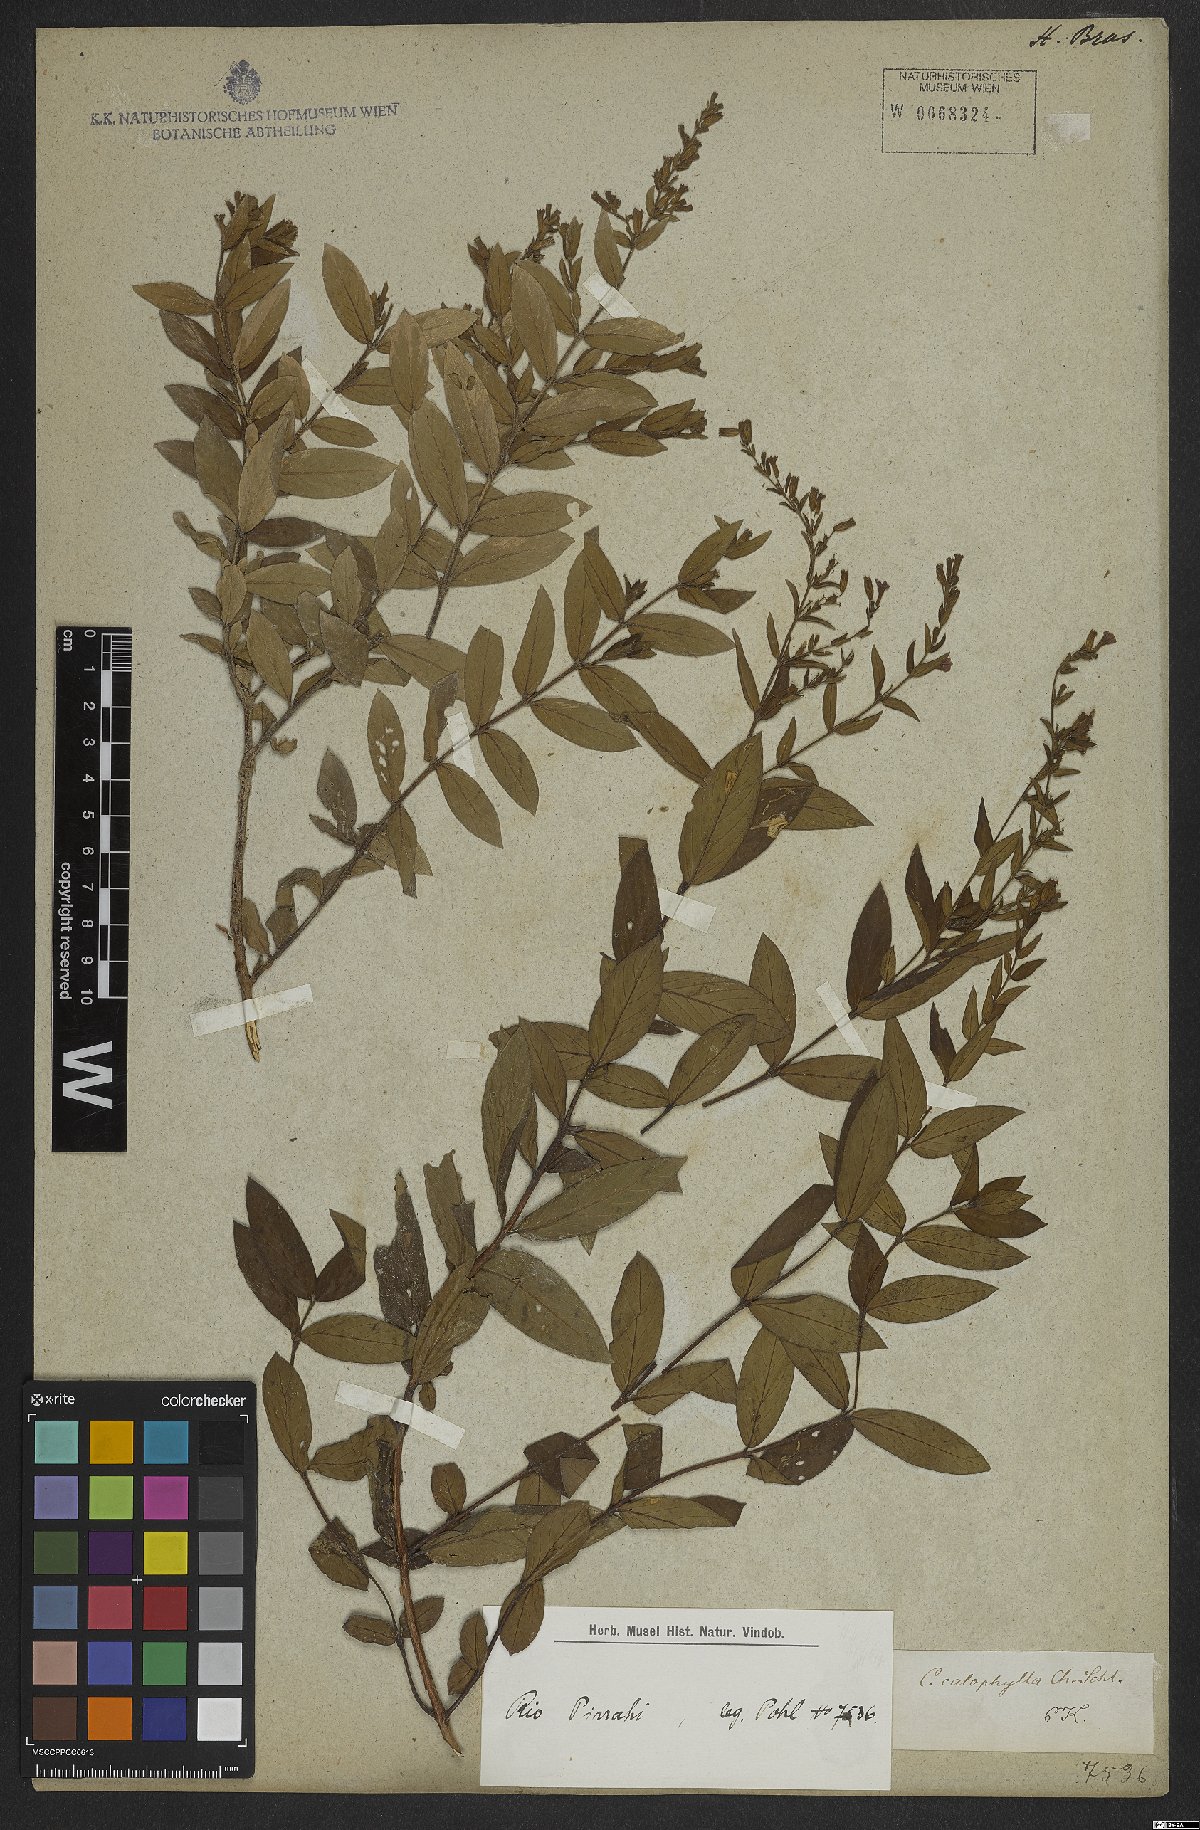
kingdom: Plantae
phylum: Tracheophyta
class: Magnoliopsida
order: Myrtales
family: Lythraceae
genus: Cuphea
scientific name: Cuphea calophylla
